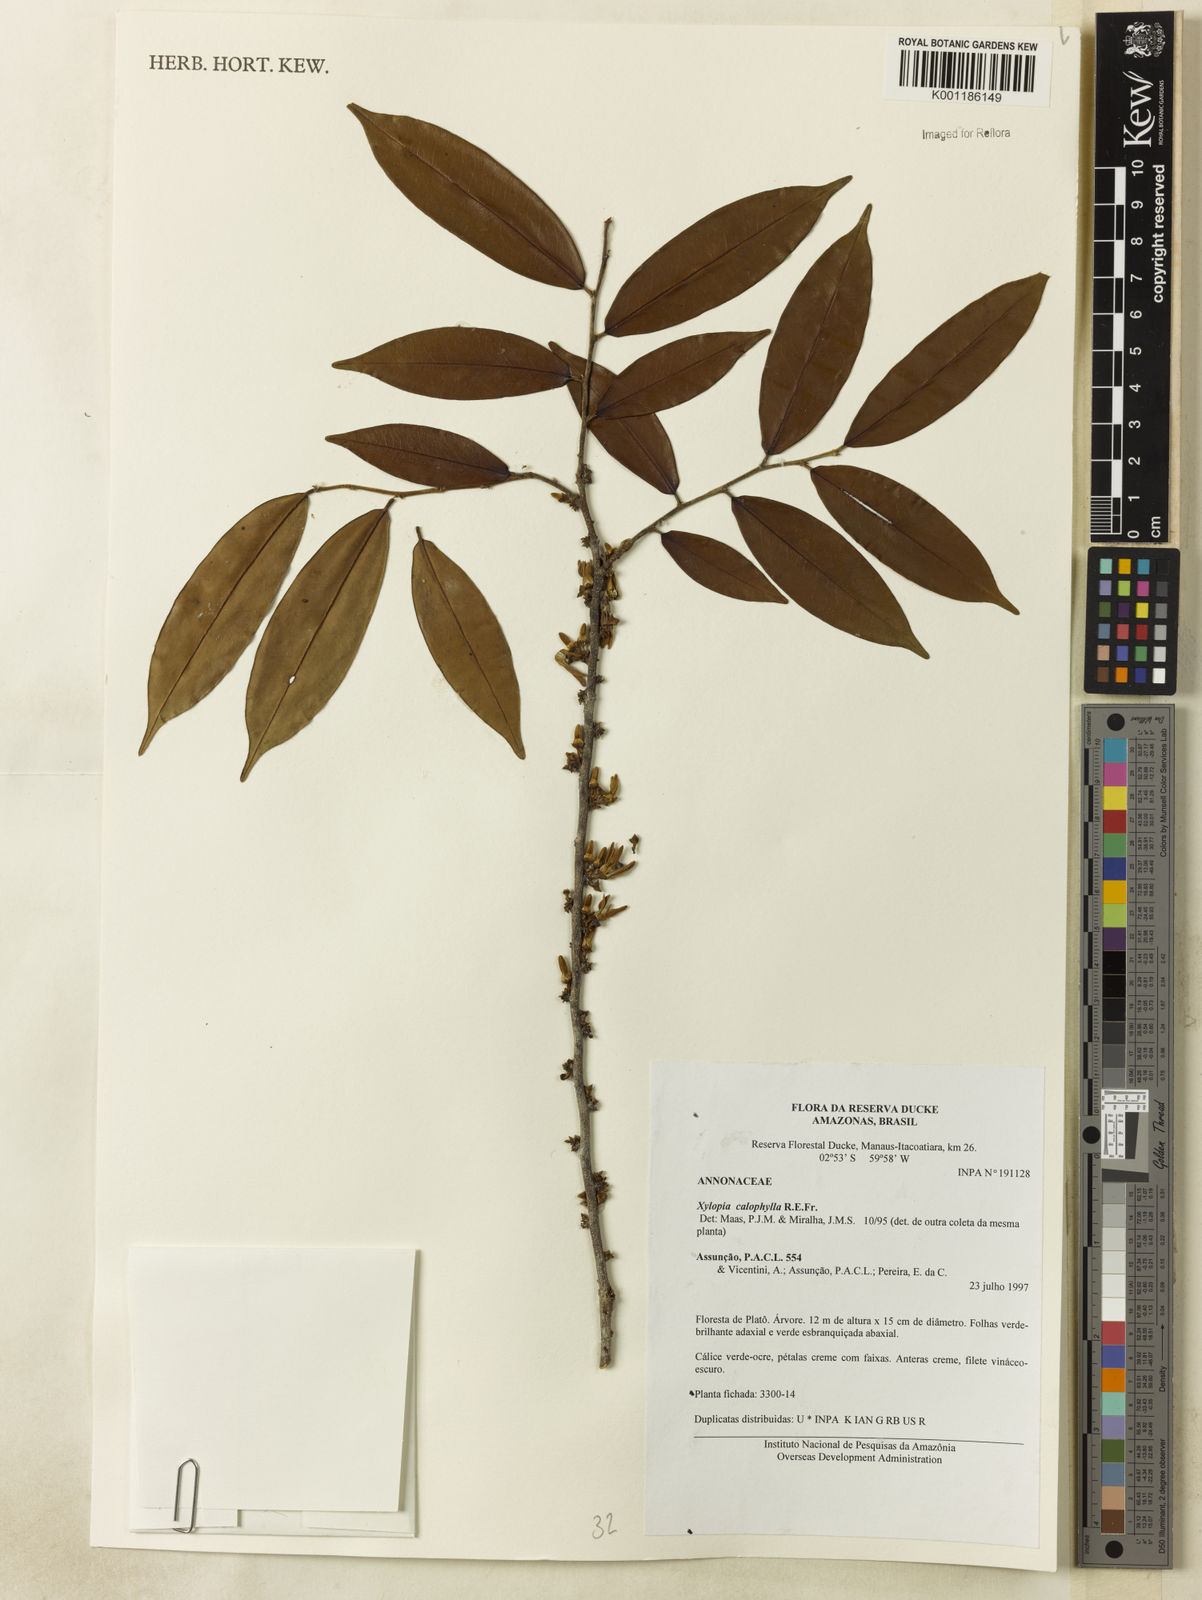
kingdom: Plantae
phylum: Tracheophyta
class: Magnoliopsida
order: Magnoliales
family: Annonaceae
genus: Xylopia
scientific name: Xylopia calophylla
